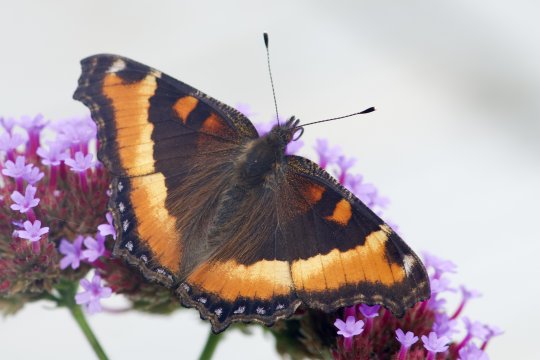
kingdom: Animalia
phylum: Arthropoda
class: Insecta
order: Lepidoptera
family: Nymphalidae
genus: Aglais
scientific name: Aglais milberti
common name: Milbert's Tortoiseshell
